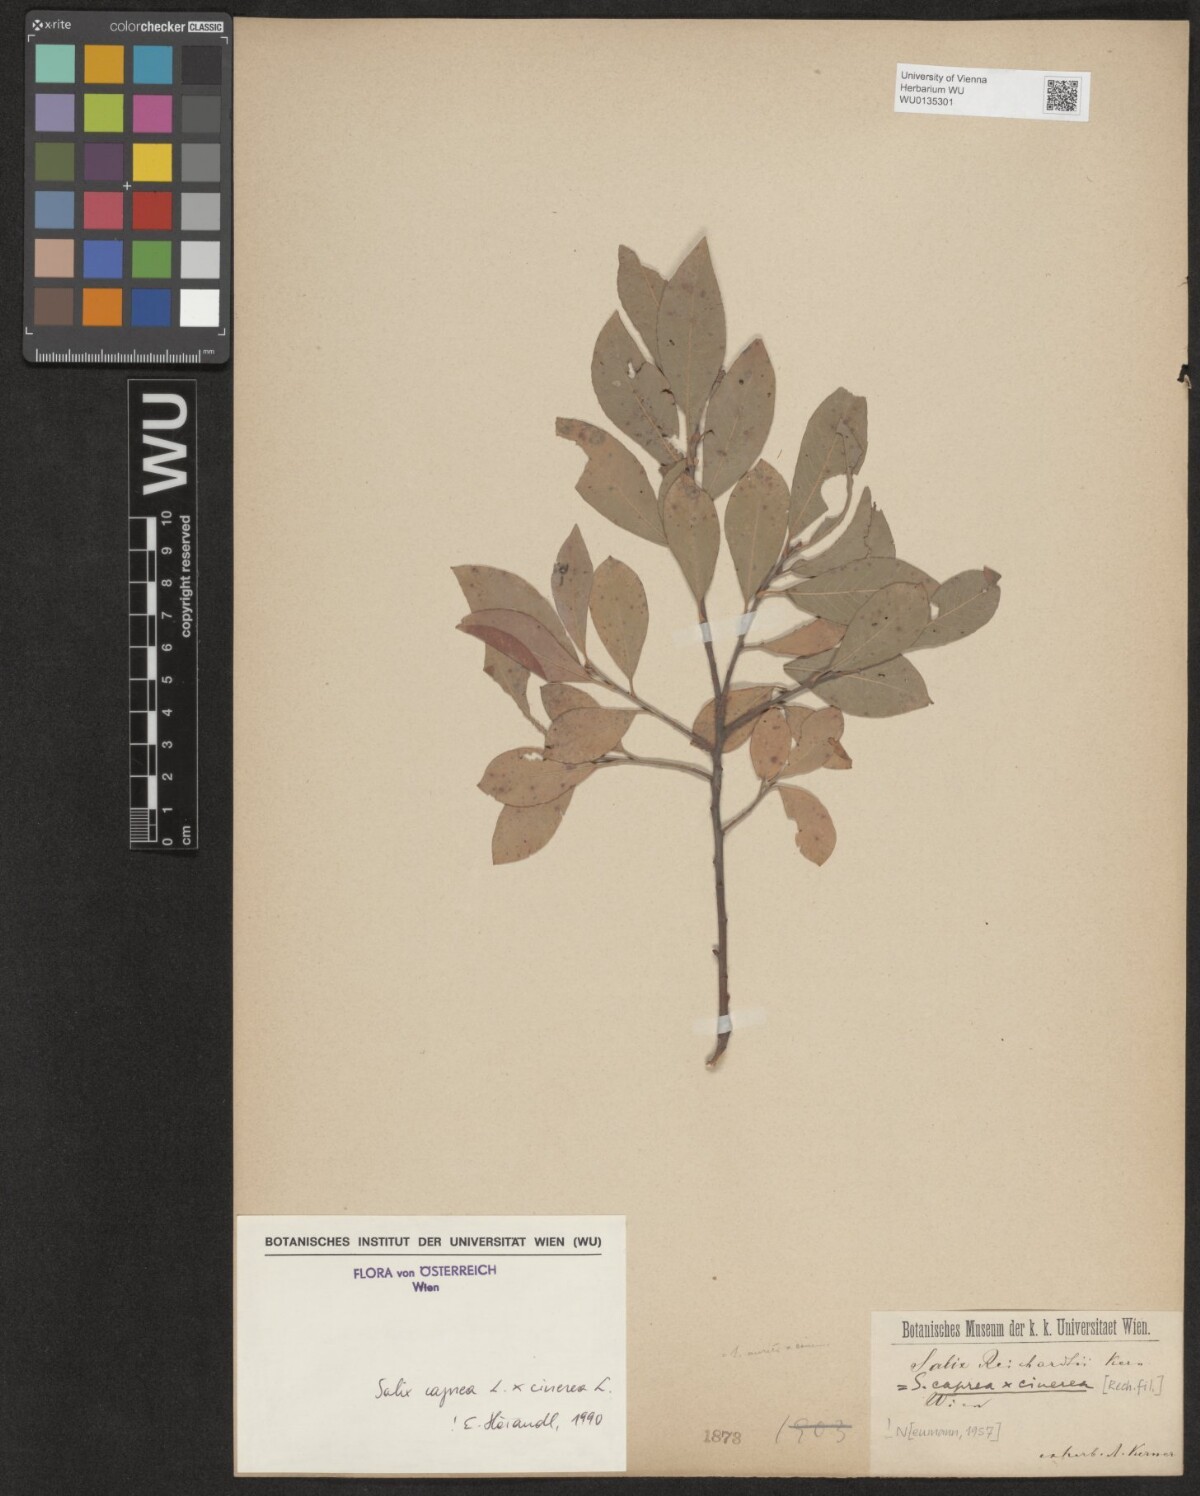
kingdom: Plantae
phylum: Tracheophyta
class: Magnoliopsida
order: Malpighiales
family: Salicaceae
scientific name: Salicaceae
